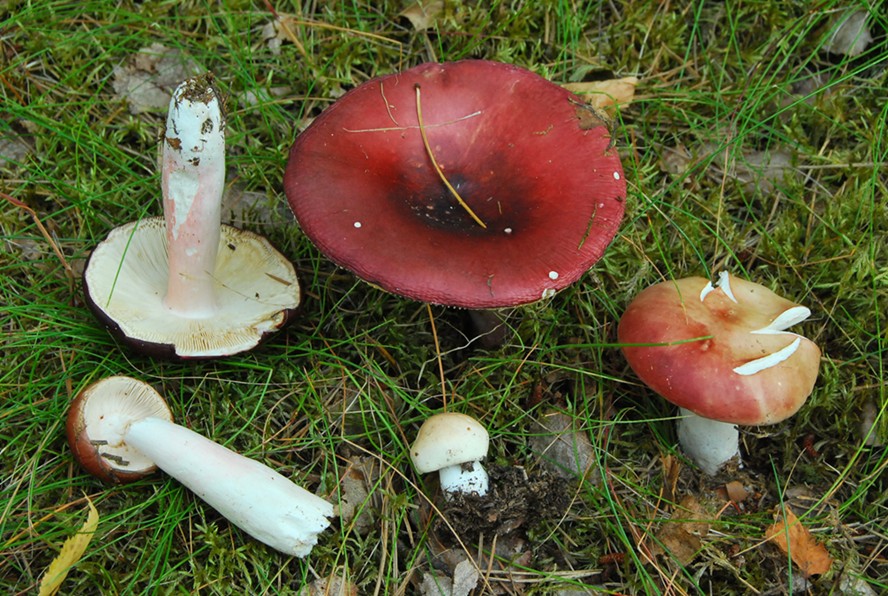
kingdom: Fungi
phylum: Basidiomycota
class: Agaricomycetes
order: Russulales
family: Russulaceae
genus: Russula
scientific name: Russula paludosa
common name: prægtig skørhat
